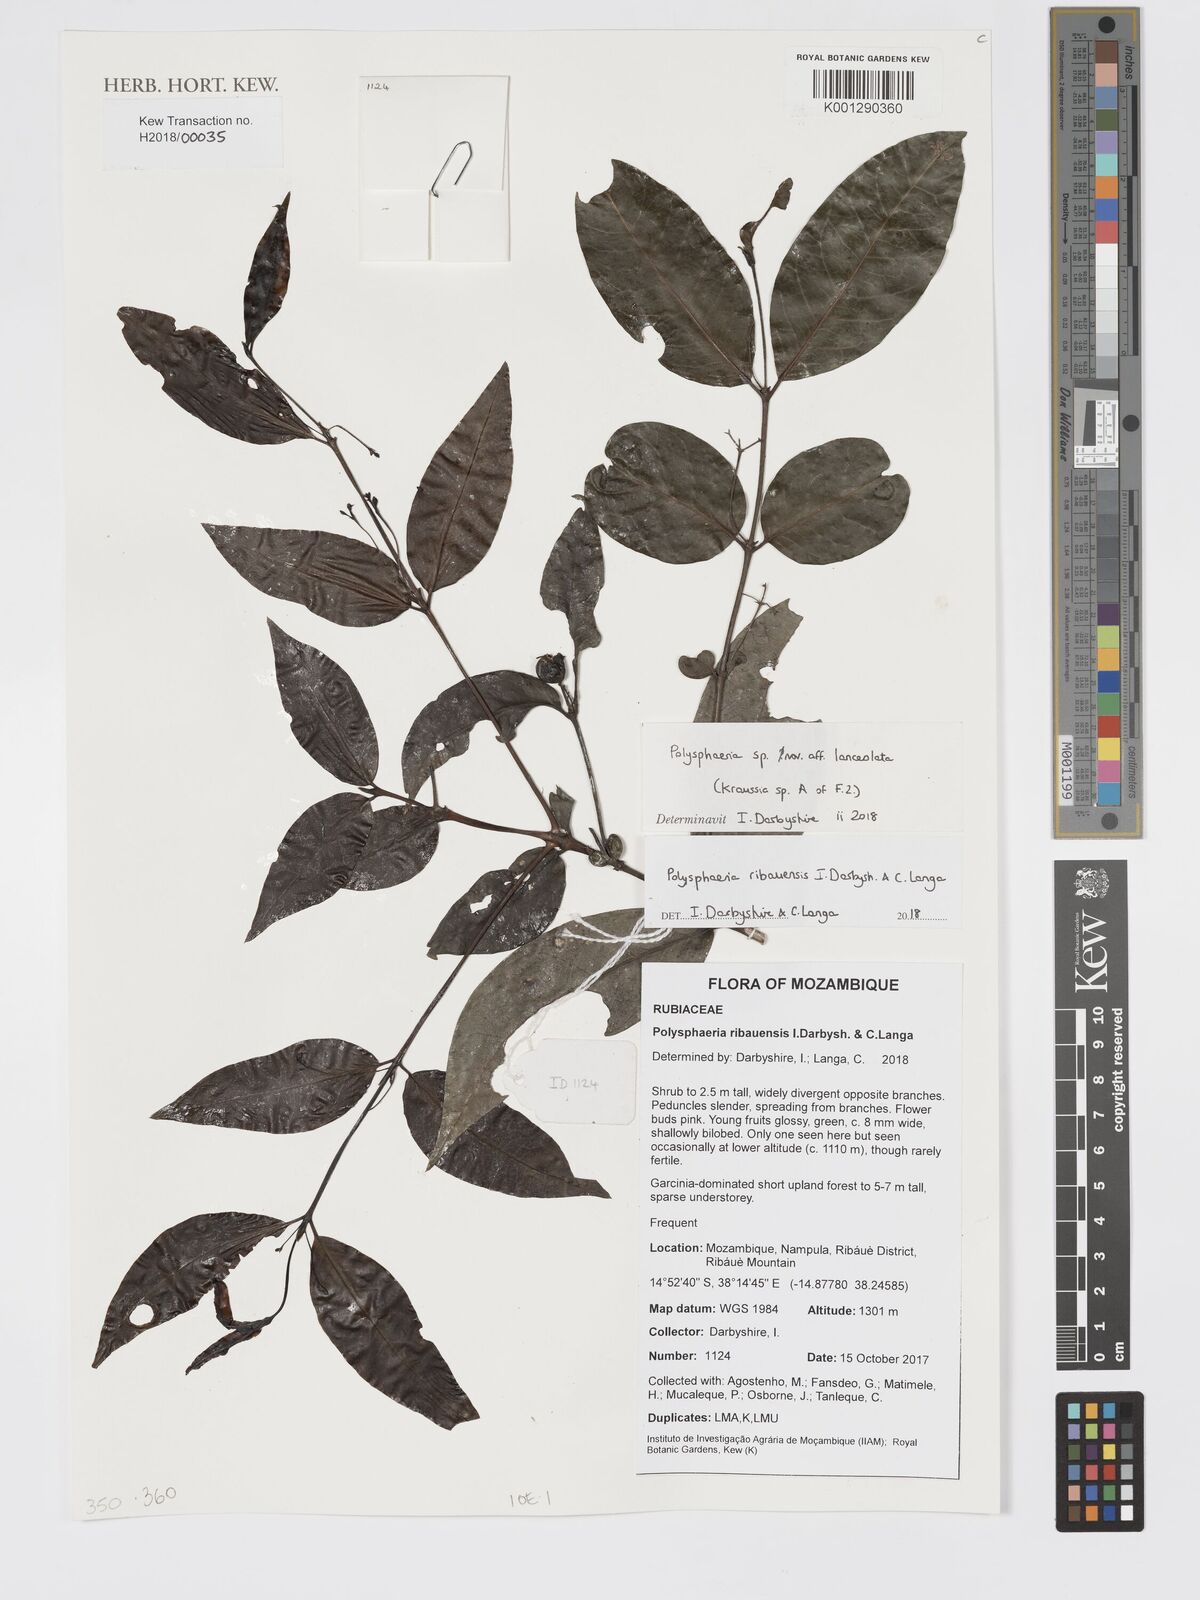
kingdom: Plantae
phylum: Tracheophyta
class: Magnoliopsida
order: Gentianales
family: Rubiaceae
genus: Polysphaeria
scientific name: Polysphaeria ribauensis
